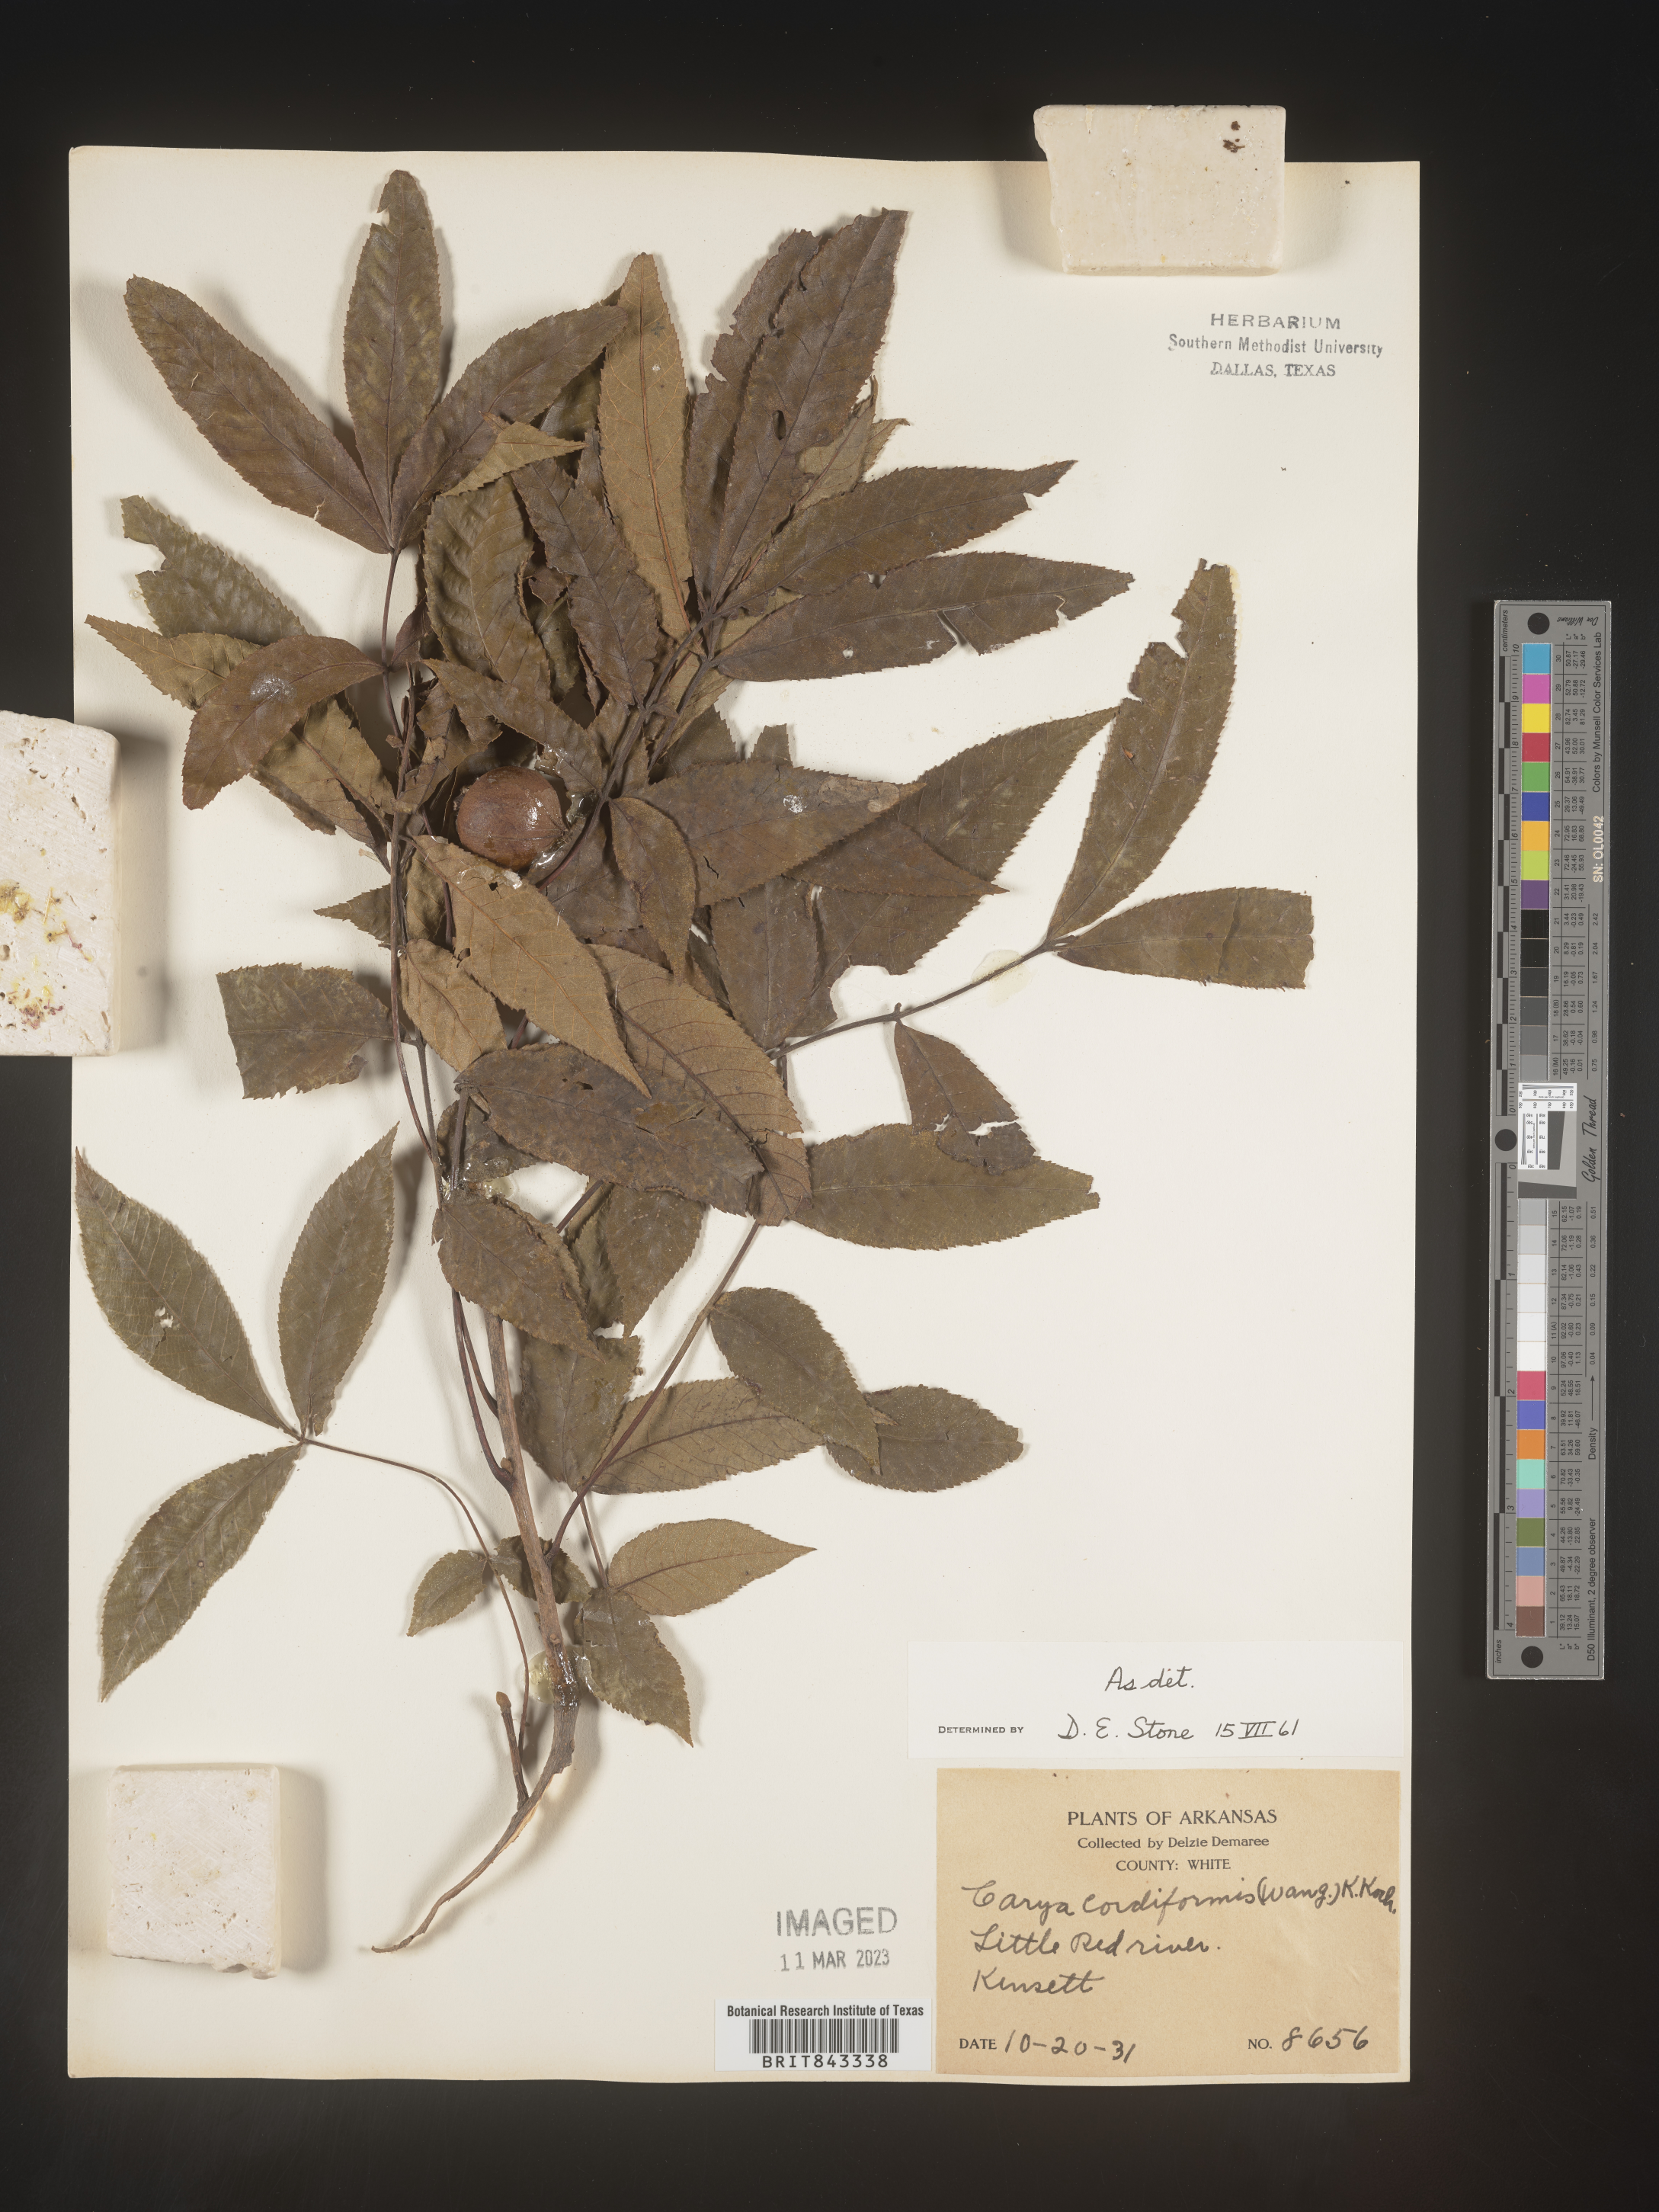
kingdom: Plantae
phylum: Tracheophyta
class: Magnoliopsida
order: Fagales
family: Juglandaceae
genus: Carya
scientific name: Carya cordiformis
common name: Bitternut hickory
